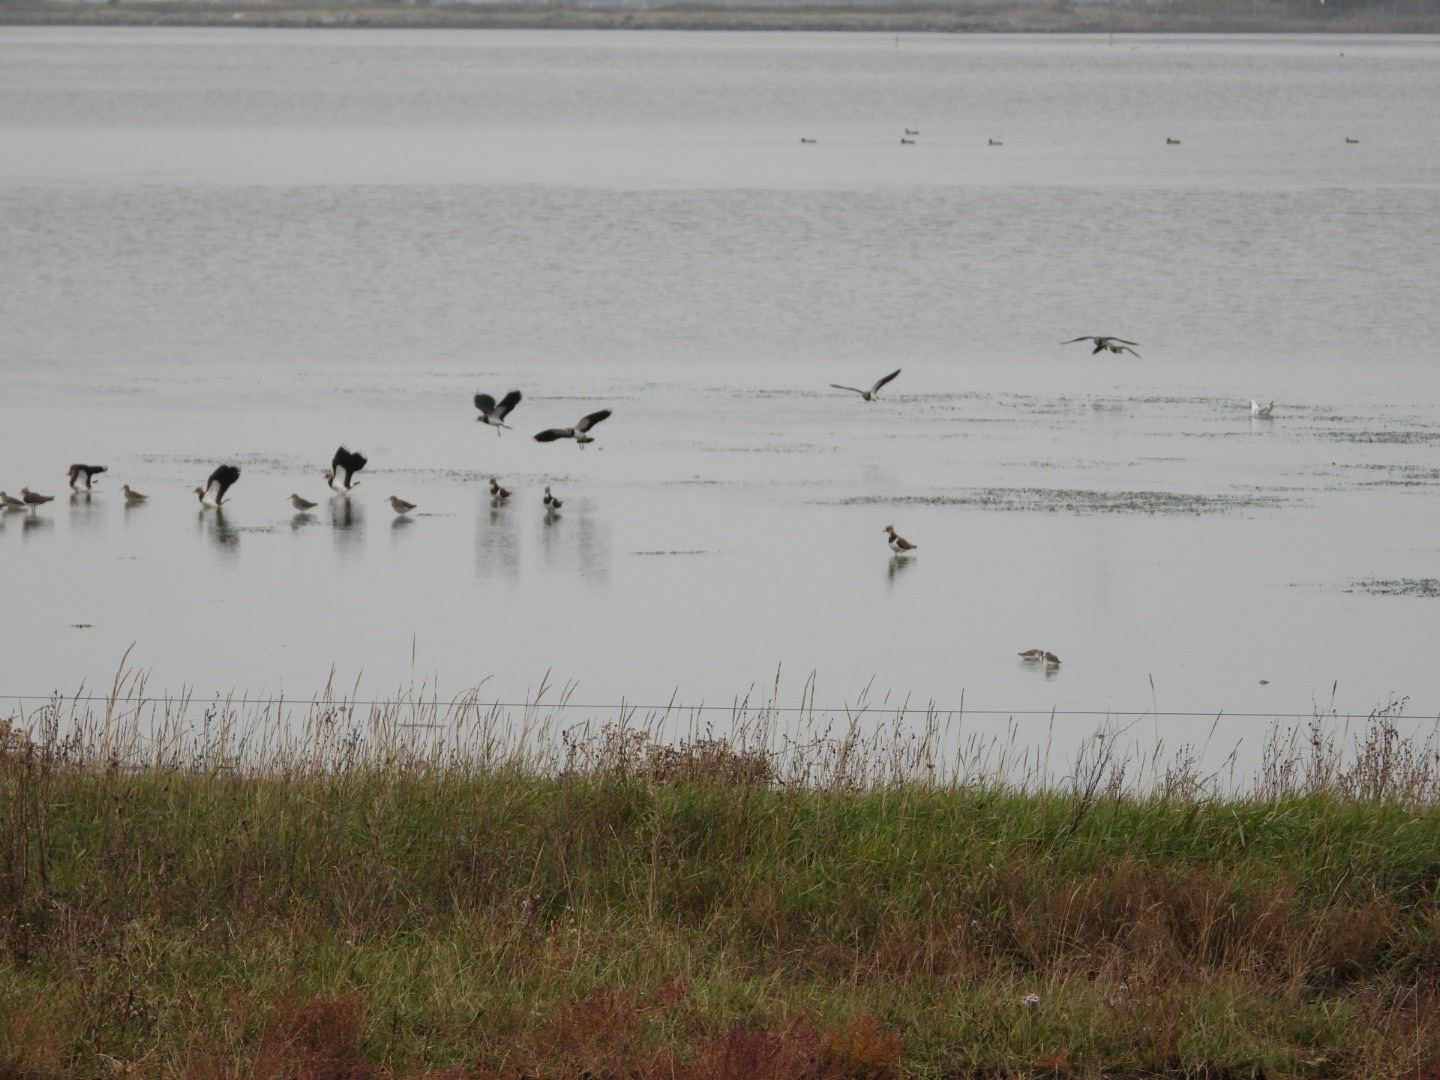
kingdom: Animalia
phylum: Chordata
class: Aves
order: Charadriiformes
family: Charadriidae
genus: Vanellus
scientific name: Vanellus vanellus
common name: Vibe
